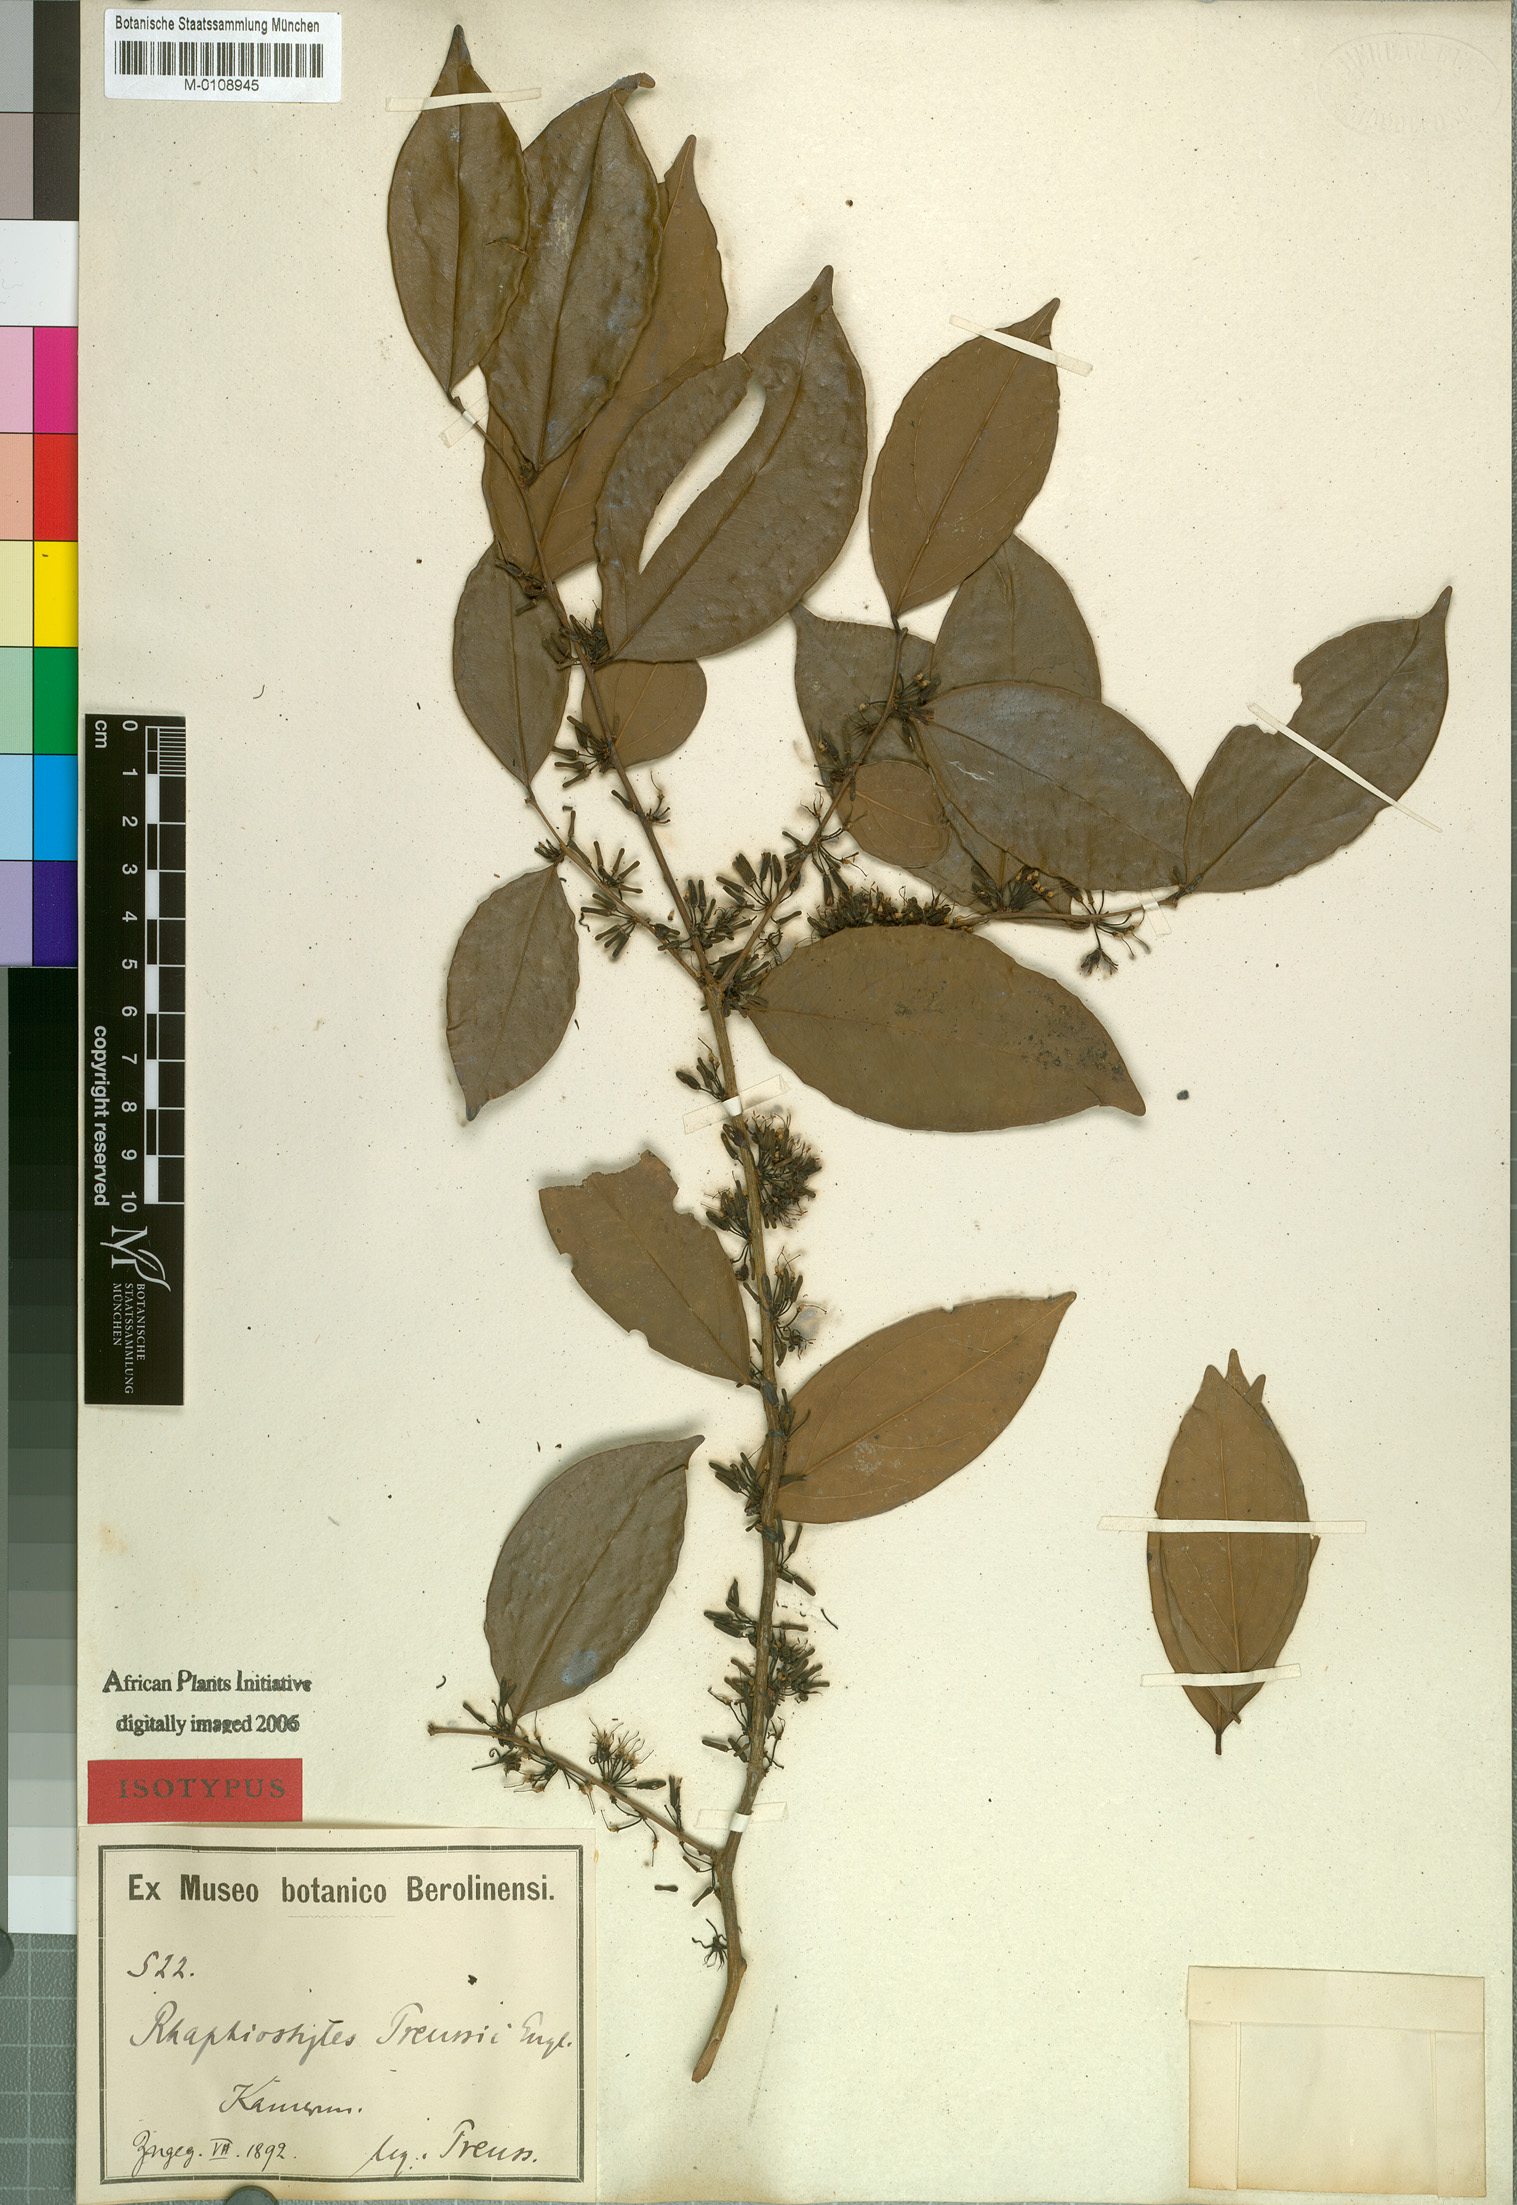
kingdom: Plantae
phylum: Tracheophyta
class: Magnoliopsida
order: Metteniusales
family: Metteniusaceae
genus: Rhaphiostylis
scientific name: Rhaphiostylis preussii
